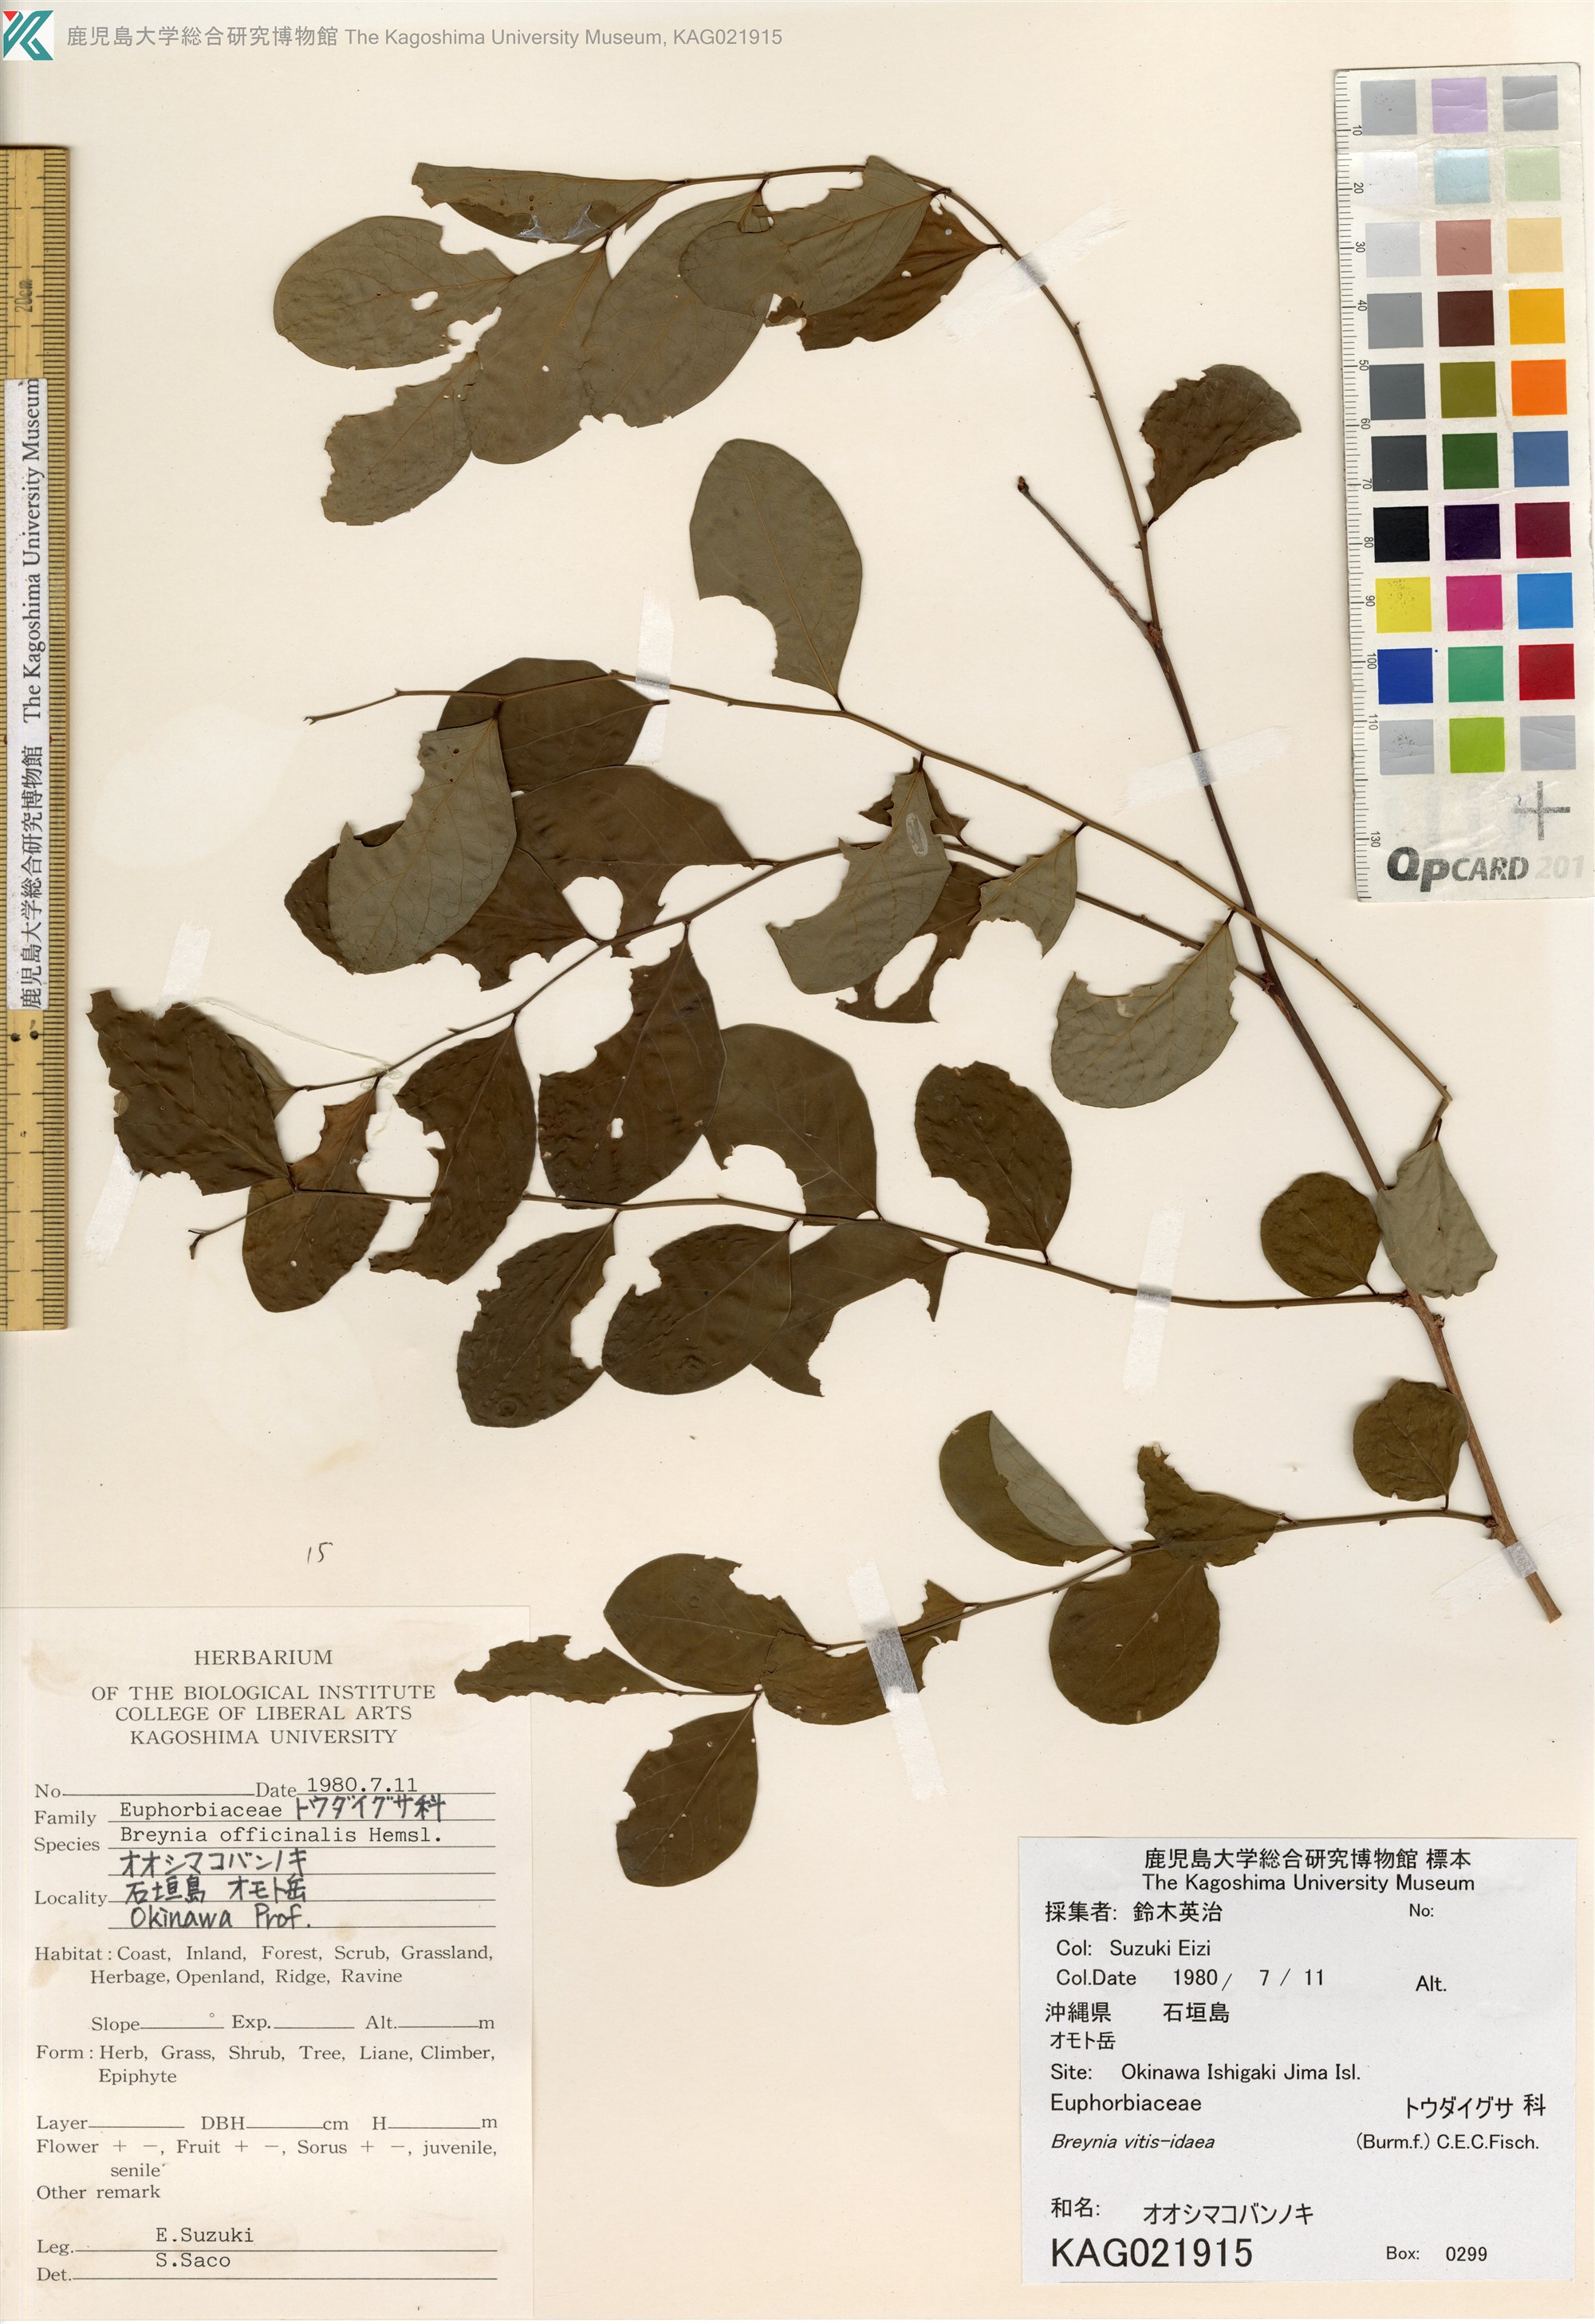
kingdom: Plantae
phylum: Tracheophyta
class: Magnoliopsida
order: Malpighiales
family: Phyllanthaceae
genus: Breynia
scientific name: Breynia officinalis
